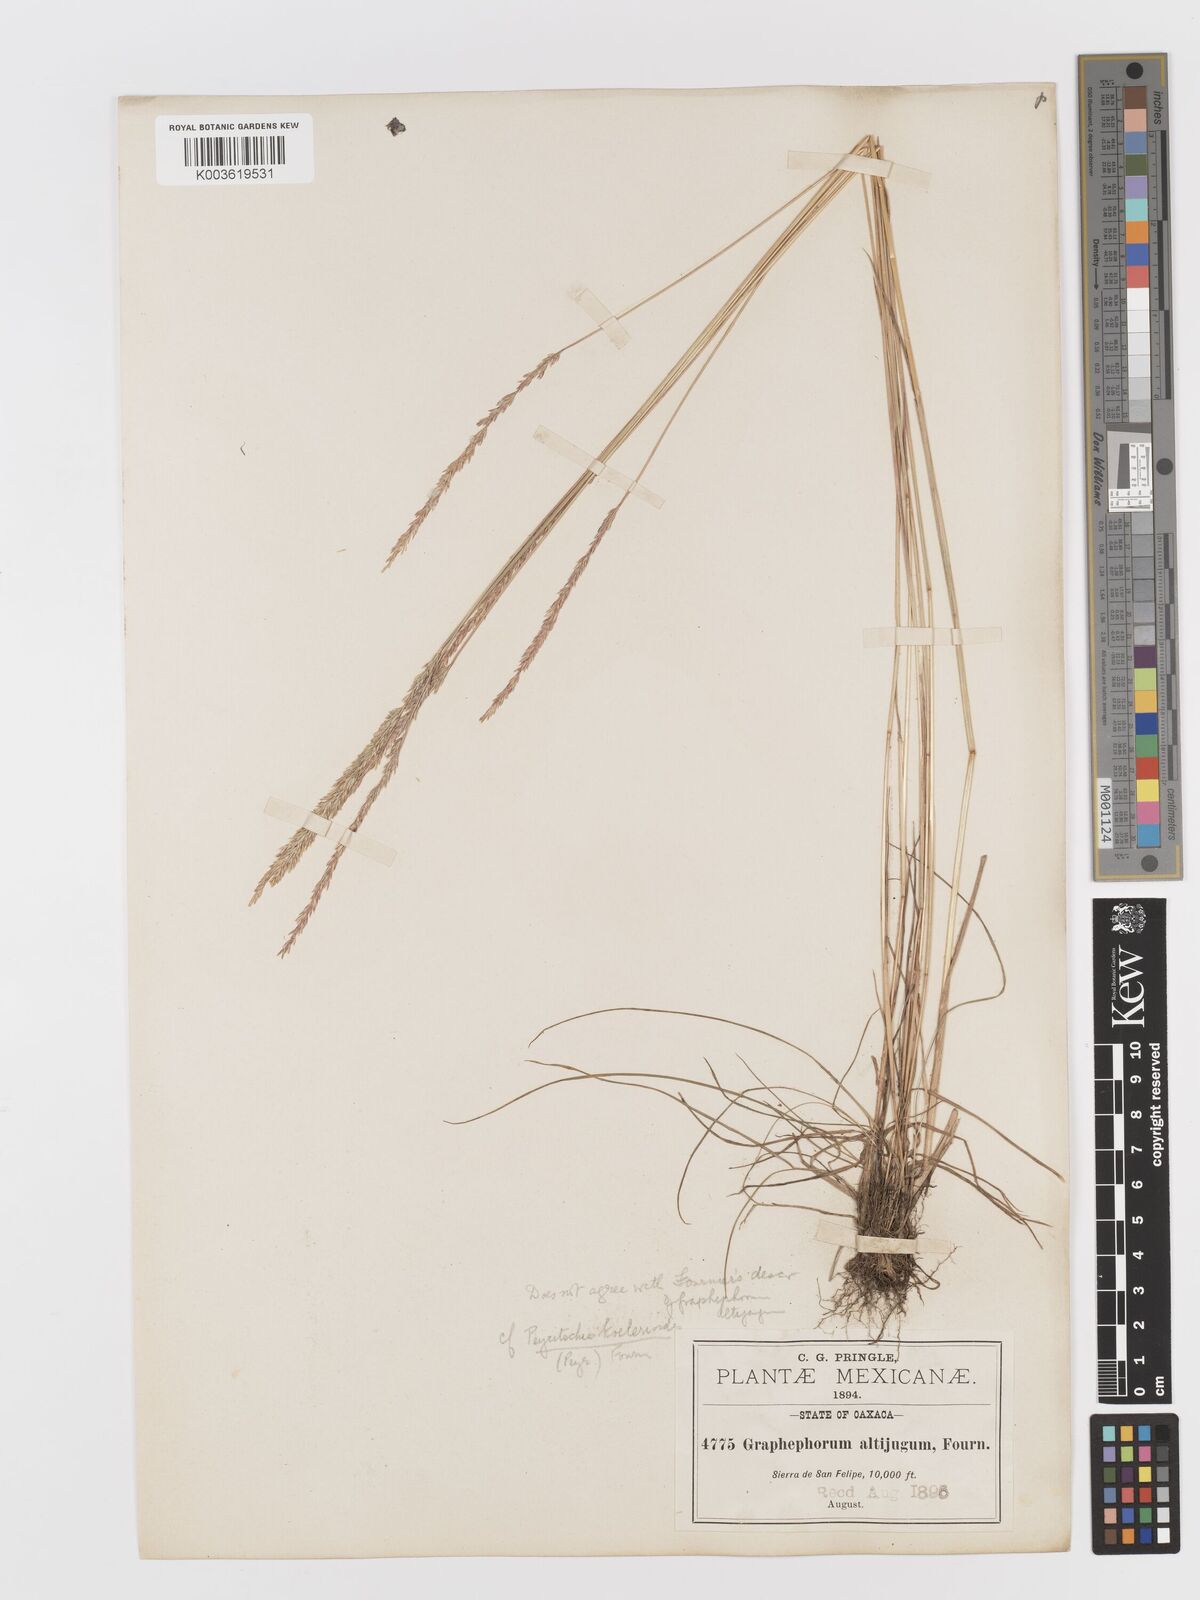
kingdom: Plantae
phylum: Tracheophyta
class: Liliopsida
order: Poales
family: Poaceae
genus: Peyritschia
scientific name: Peyritschia koelerioides
